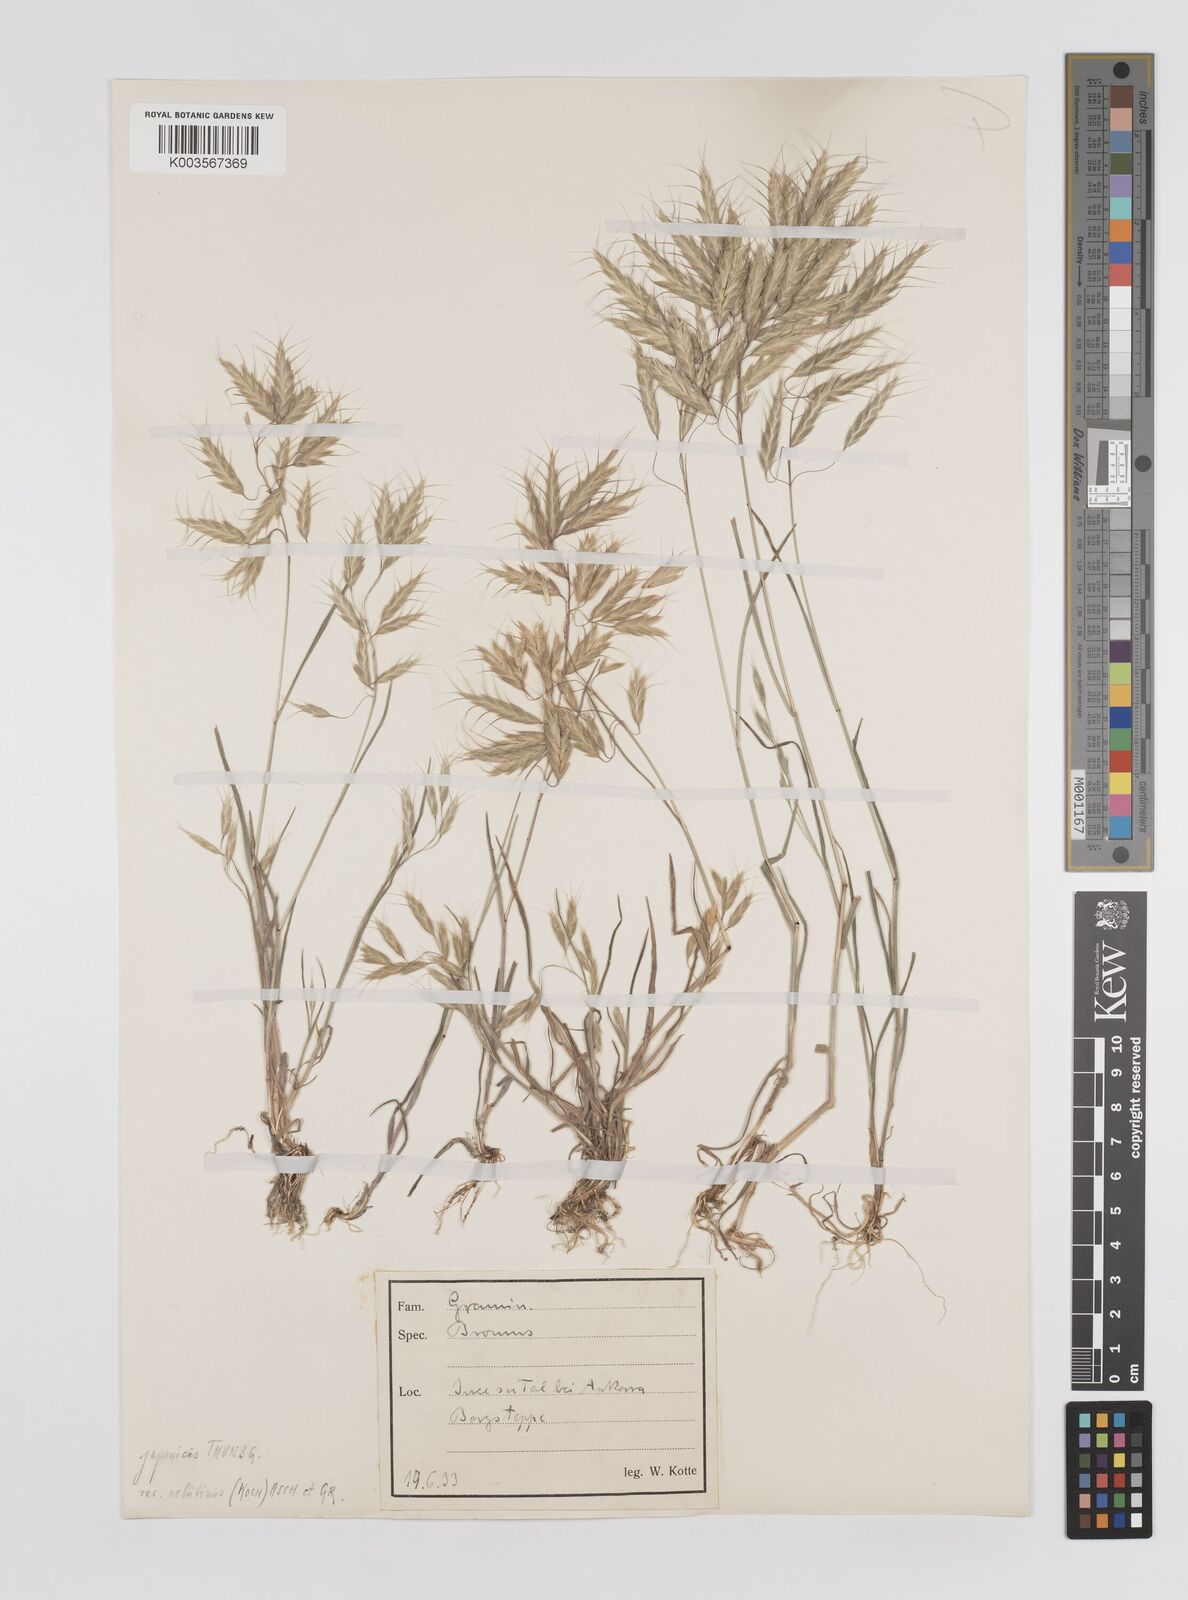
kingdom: Plantae
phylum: Tracheophyta
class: Liliopsida
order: Poales
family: Poaceae
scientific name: Poaceae
